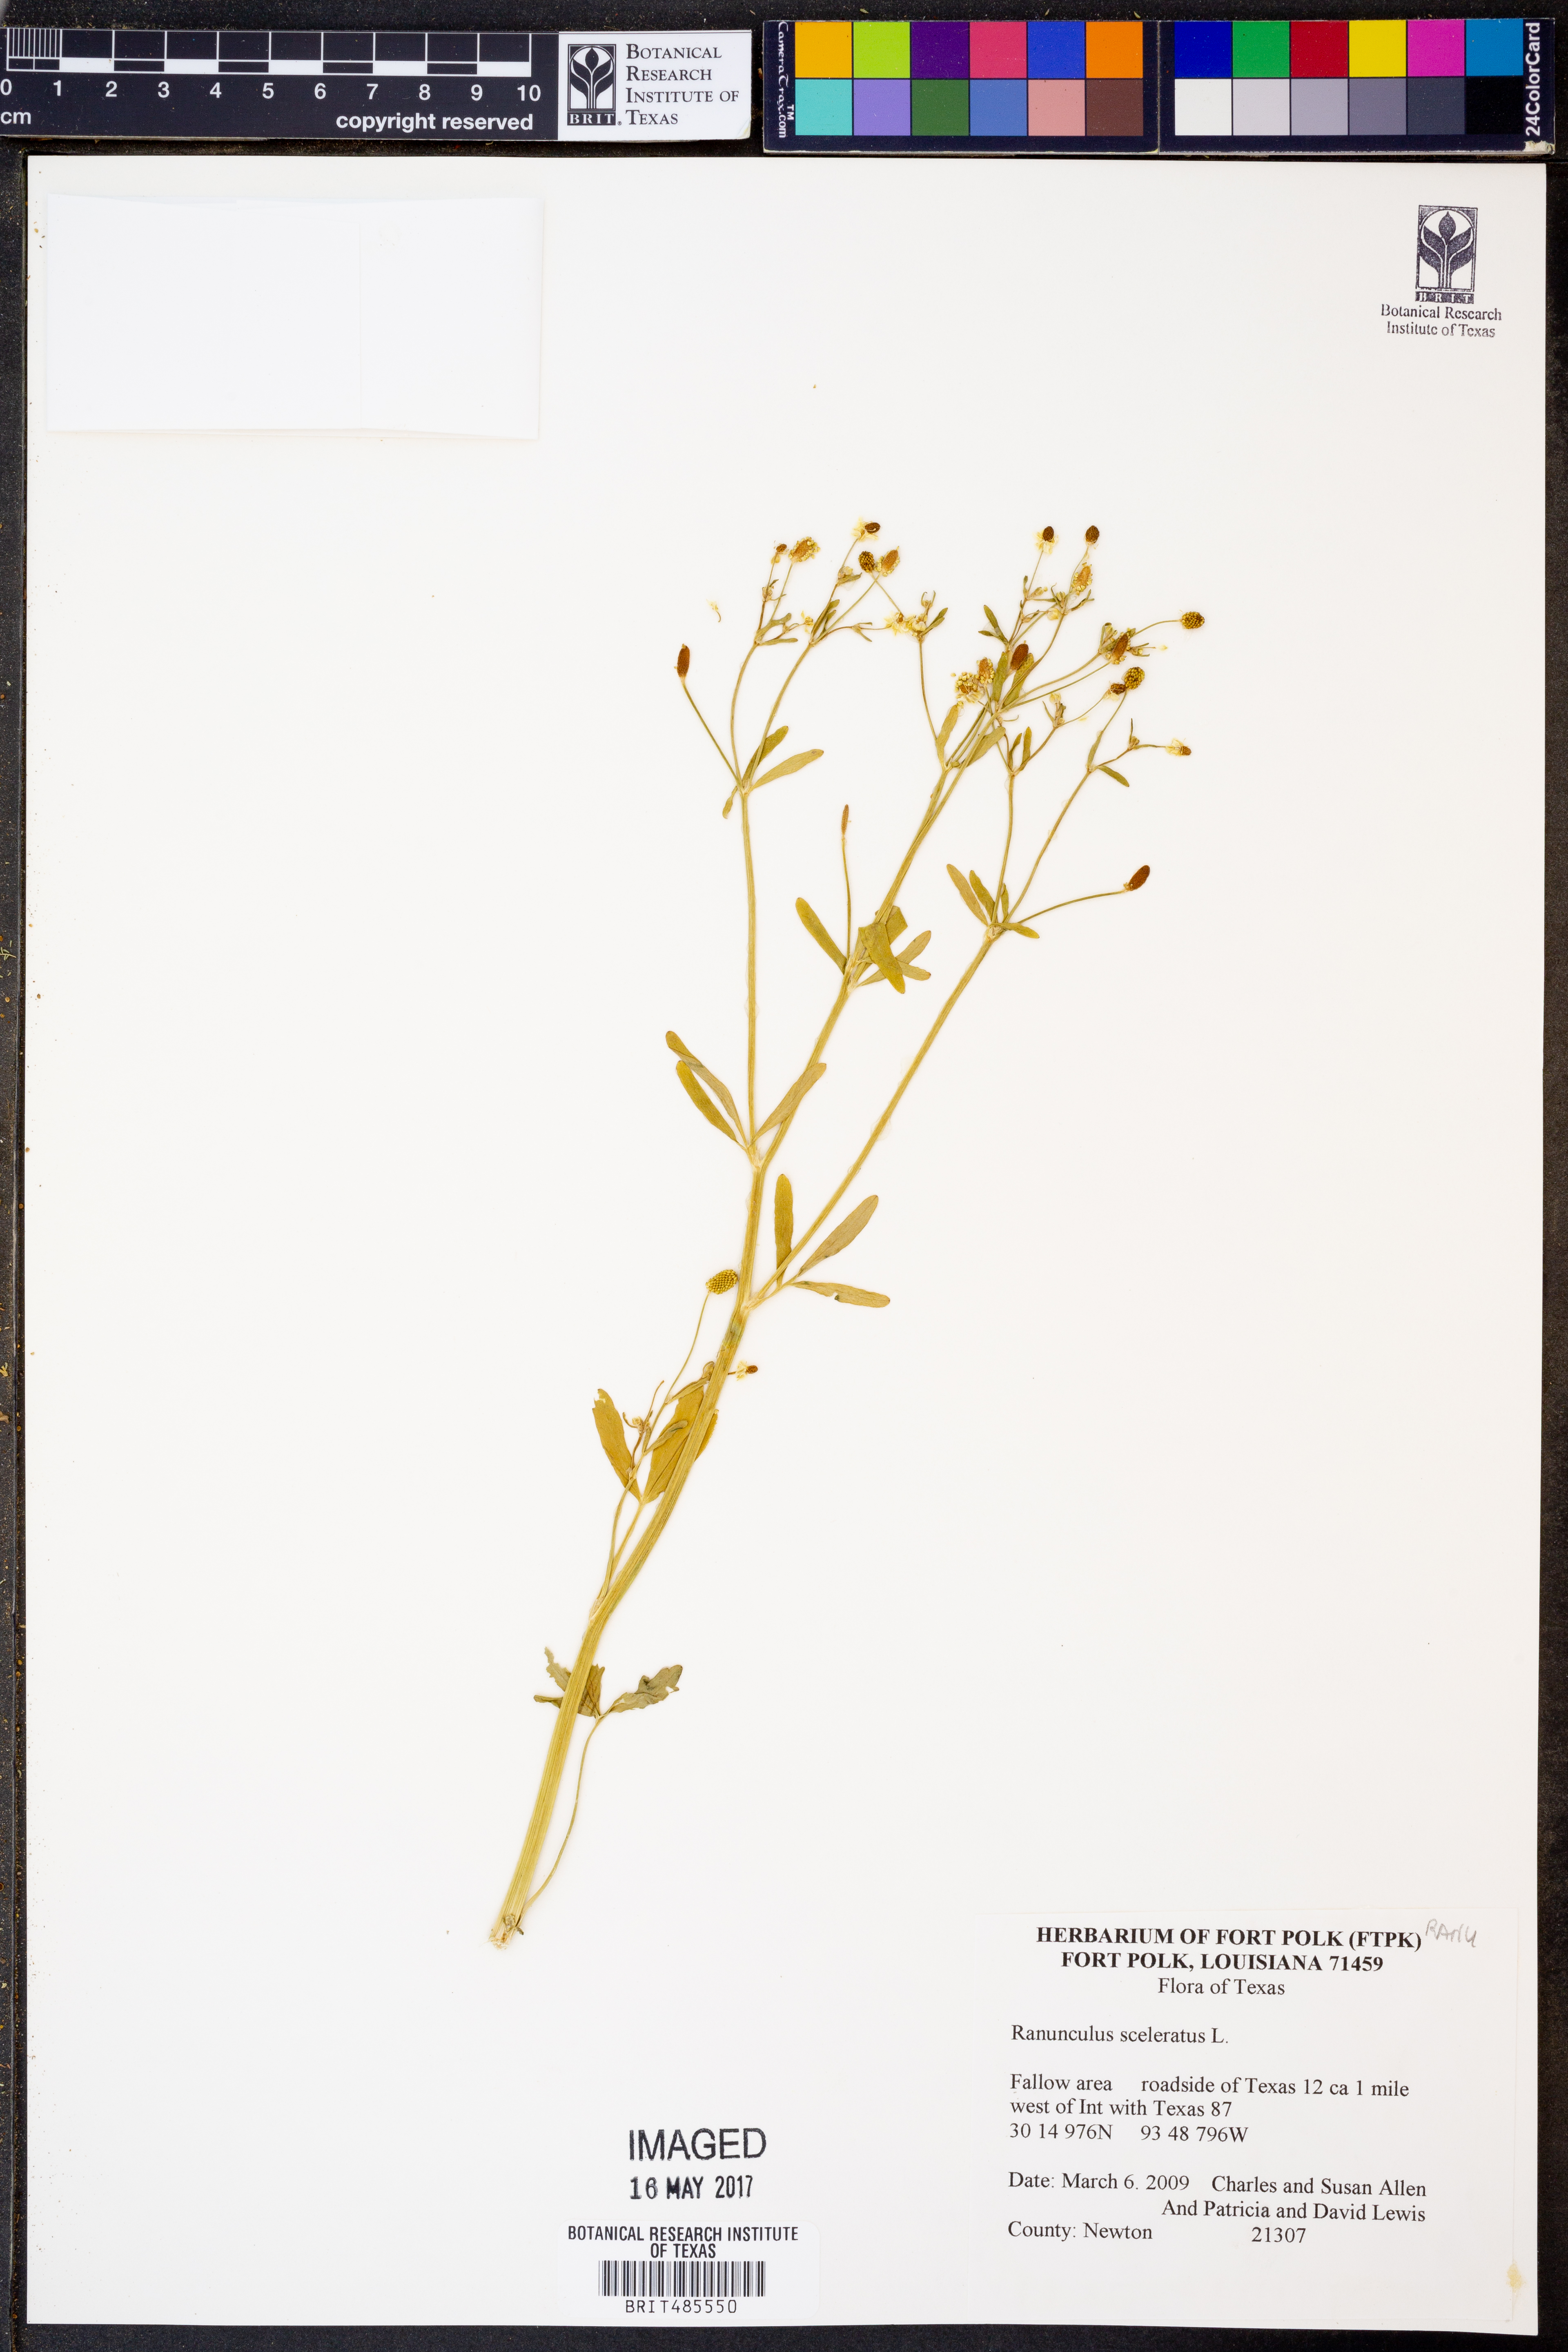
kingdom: Plantae
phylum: Tracheophyta
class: Magnoliopsida
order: Ranunculales
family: Ranunculaceae
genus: Ranunculus
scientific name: Ranunculus sceleratus
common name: Celery-leaved buttercup
